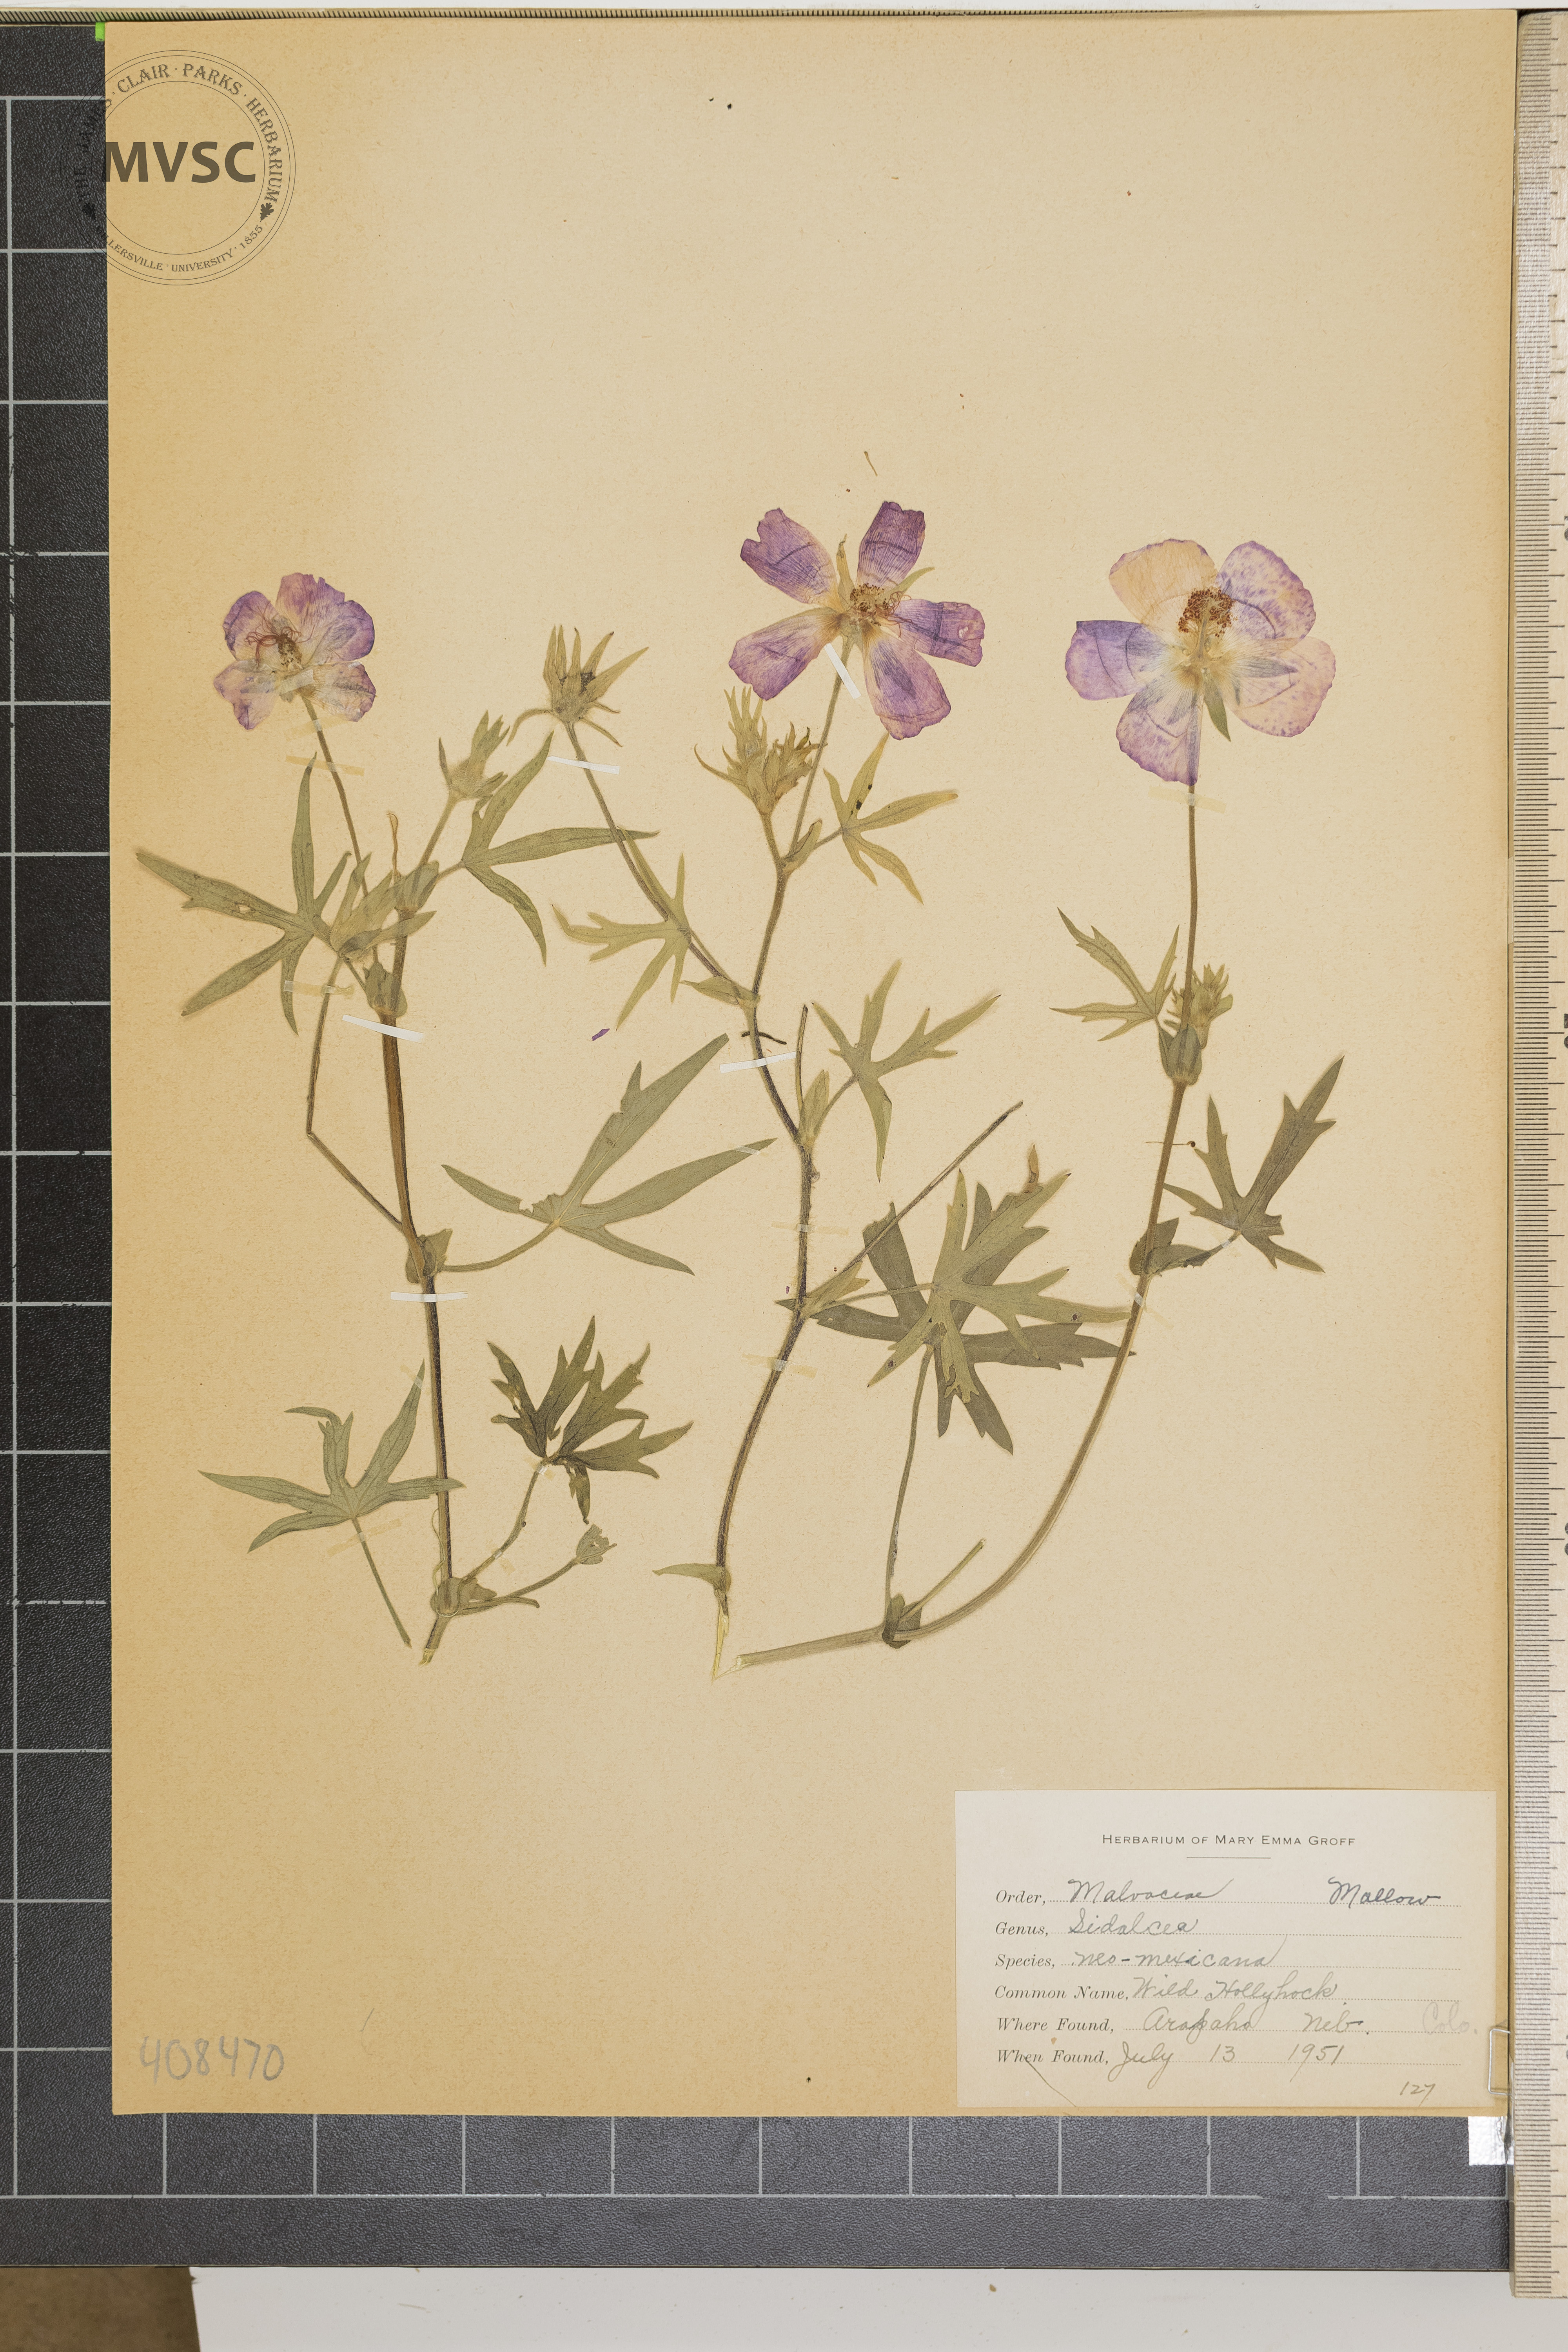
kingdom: Plantae
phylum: Tracheophyta
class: Magnoliopsida
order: Malvales
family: Malvaceae
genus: Callirhoe
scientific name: Callirhoe involucrata
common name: Purple poppy-mallow
